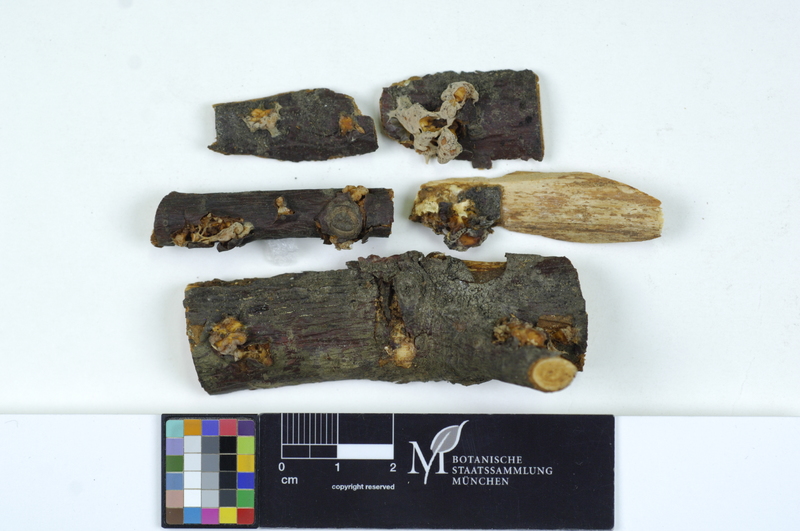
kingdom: Fungi
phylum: Basidiomycota
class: Pucciniomycetes
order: Pucciniales
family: Cronartiaceae
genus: Cronartium
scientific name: Cronartium ribicola
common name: White pine blister rust
